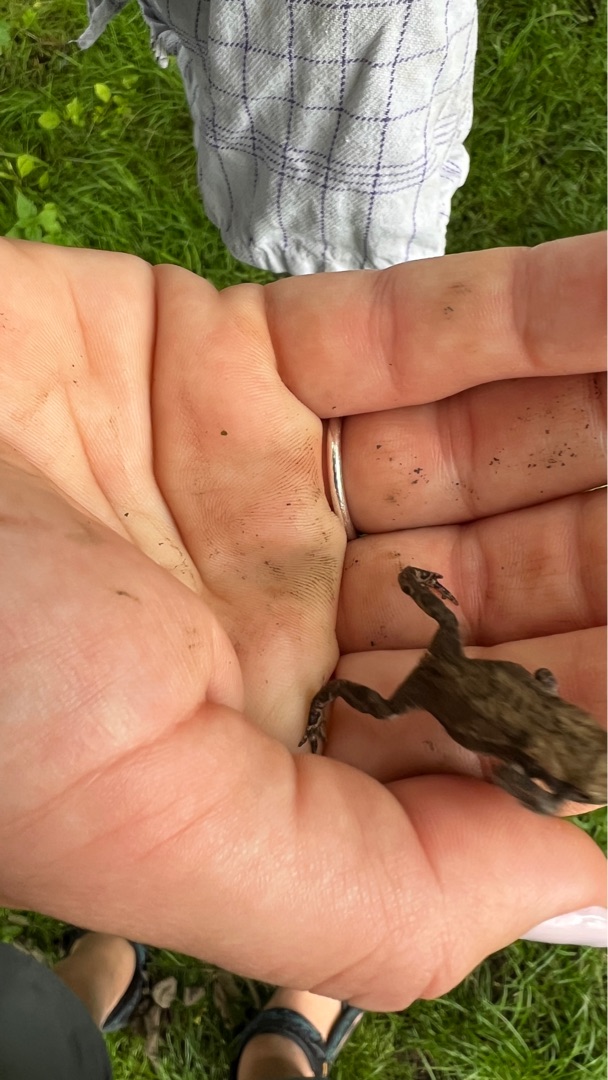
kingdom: Animalia
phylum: Chordata
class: Amphibia
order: Anura
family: Bufonidae
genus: Bufo
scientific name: Bufo bufo
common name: Skrubtudse
